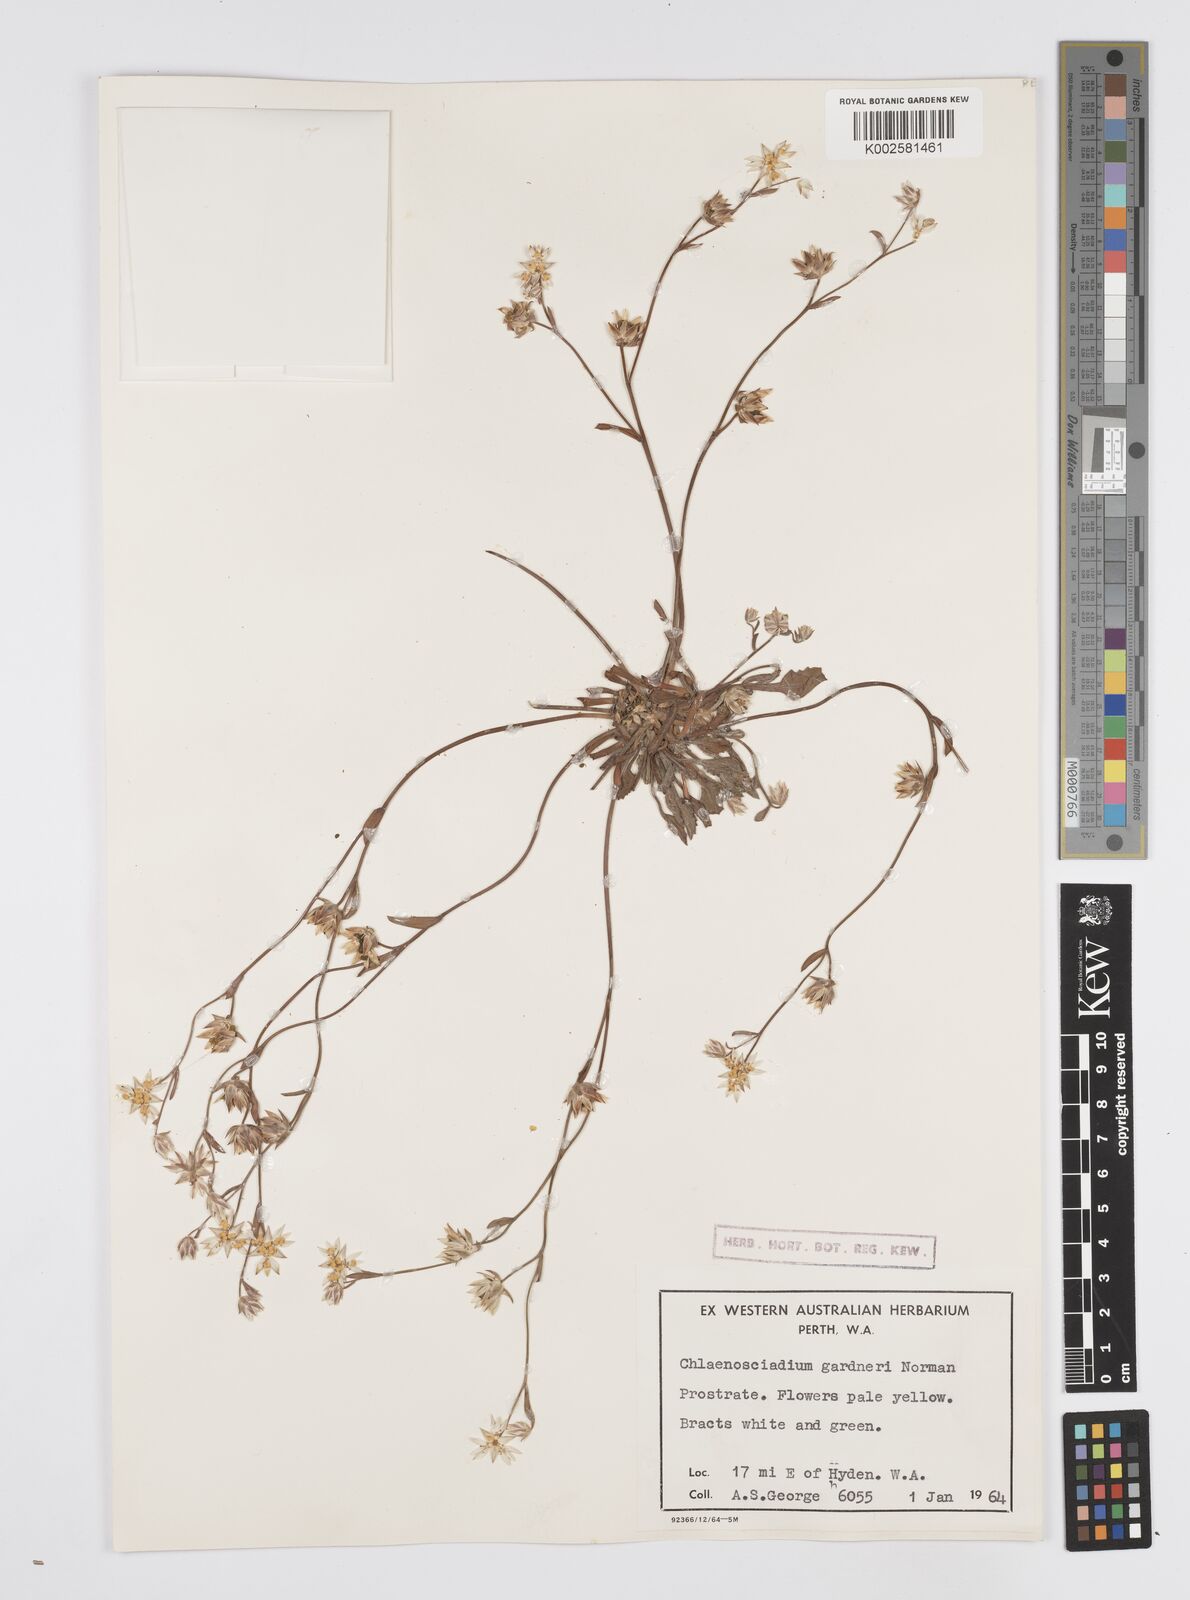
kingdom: Plantae
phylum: Tracheophyta
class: Magnoliopsida
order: Apiales
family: Apiaceae
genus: Centella
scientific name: Centella
